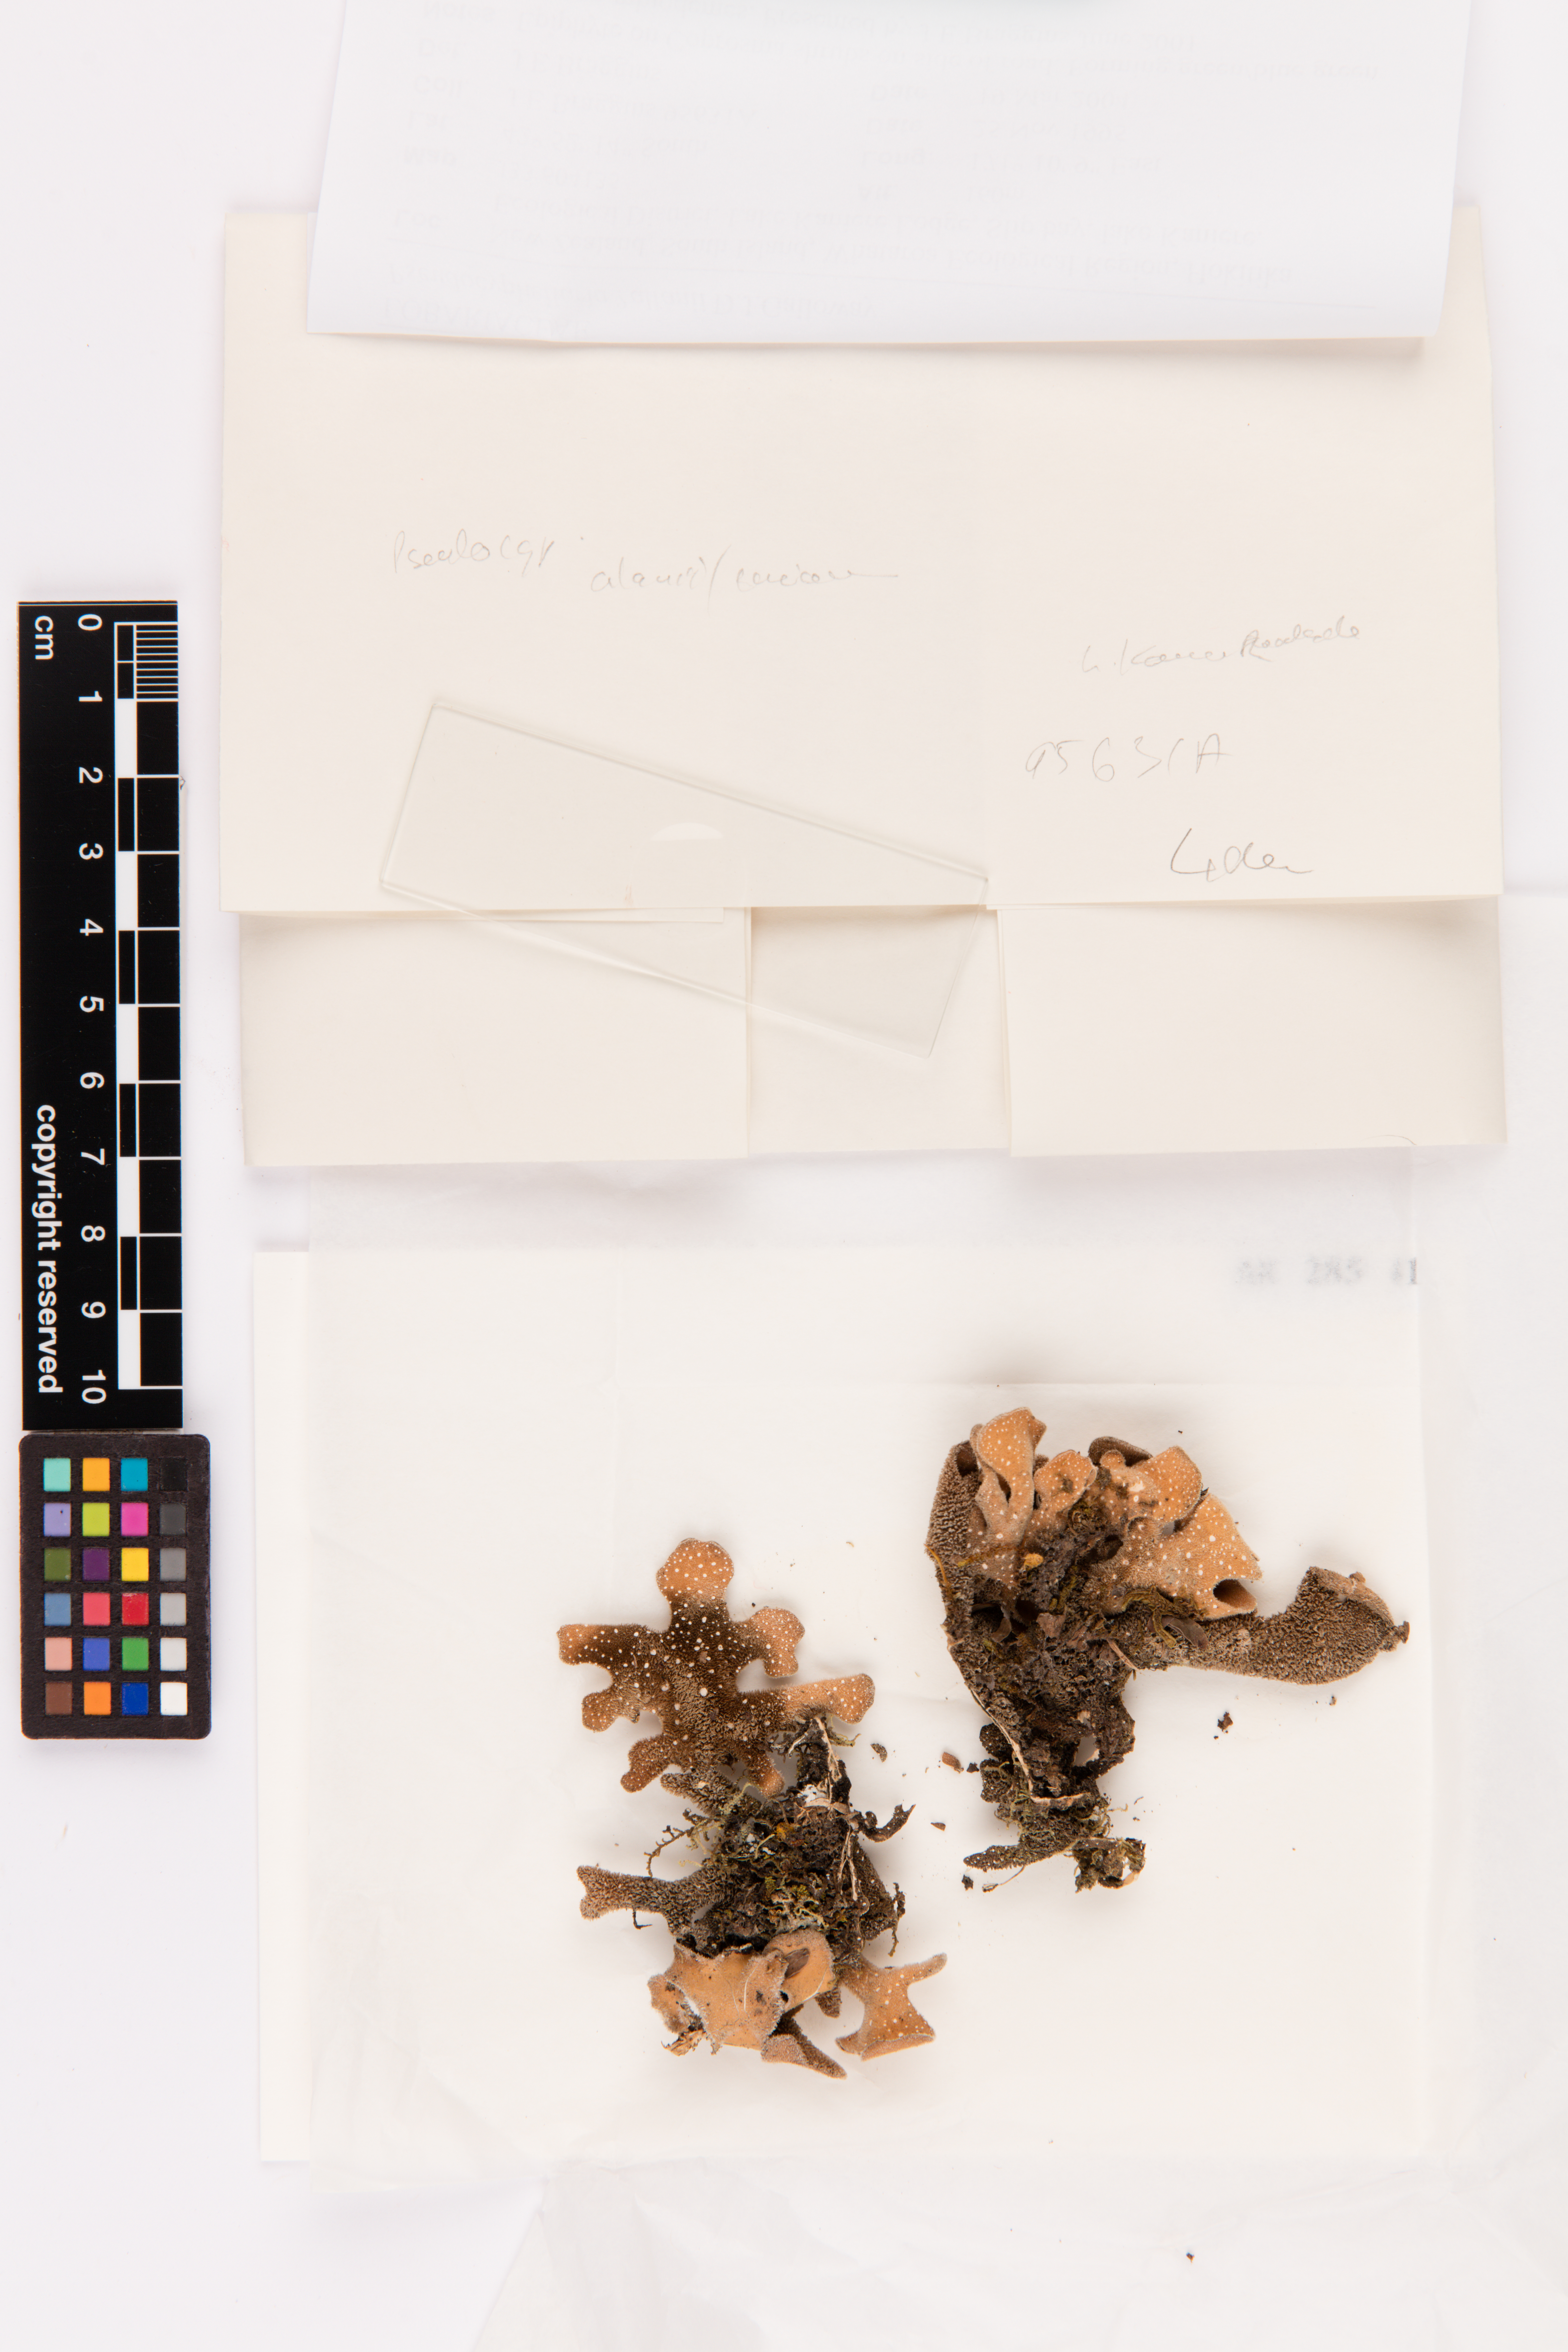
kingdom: Fungi
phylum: Ascomycota
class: Lecanoromycetes
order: Peltigerales
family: Lobariaceae
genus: Pseudocyphellaria
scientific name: Pseudocyphellaria allanii
